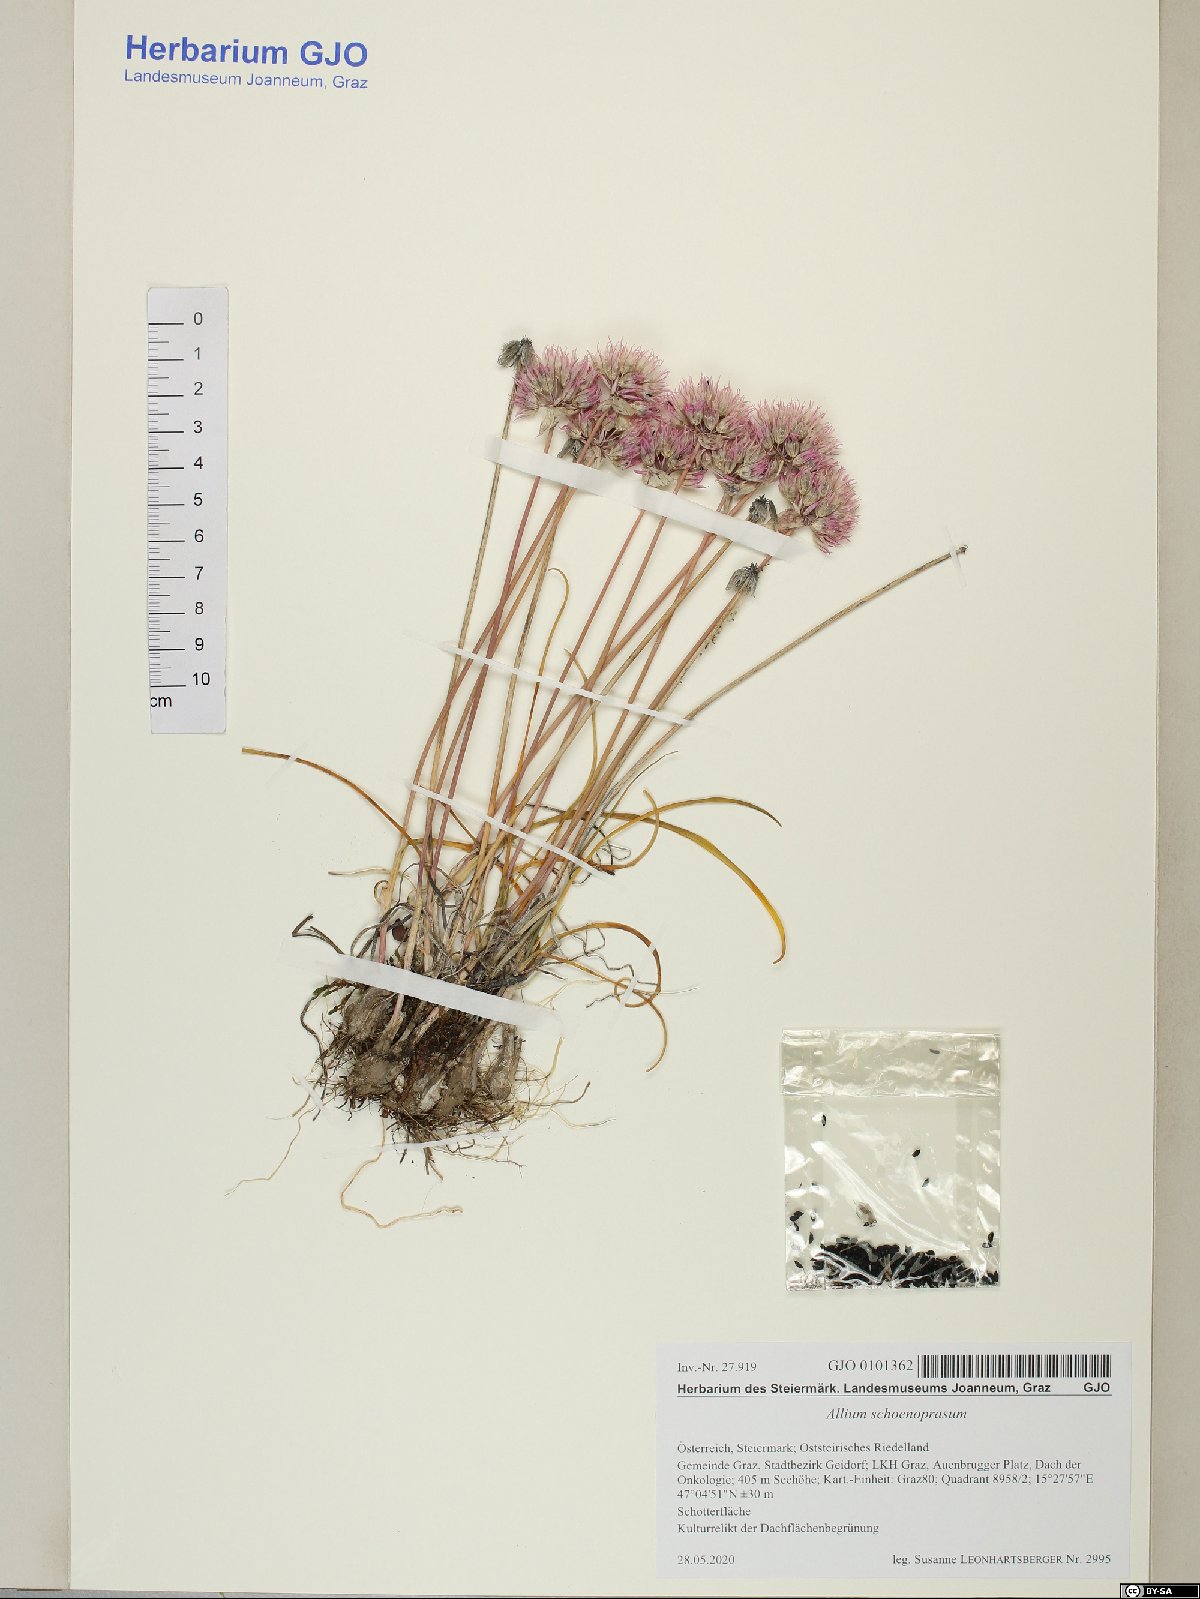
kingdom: Plantae
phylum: Tracheophyta
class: Liliopsida
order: Asparagales
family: Amaryllidaceae
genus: Allium
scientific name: Allium schoenoprasum
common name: Chives
